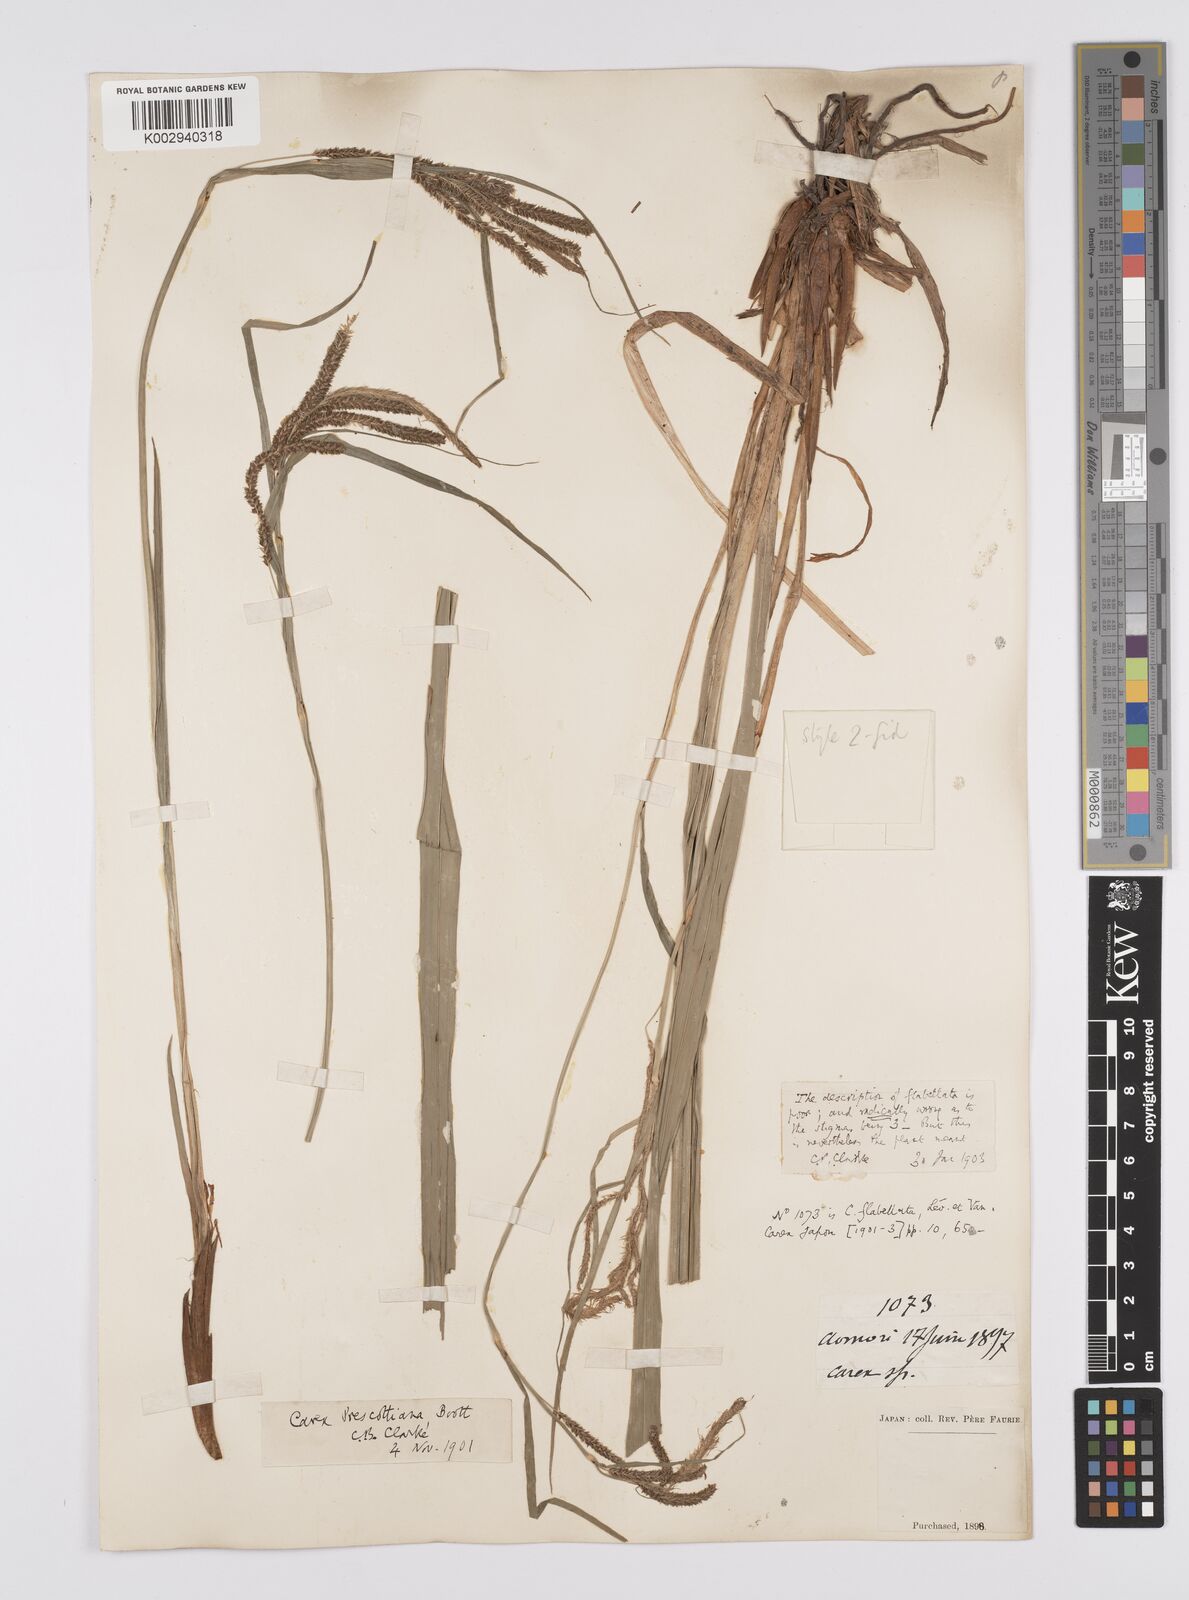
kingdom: Plantae
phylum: Tracheophyta
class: Liliopsida
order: Poales
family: Cyperaceae
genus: Carex
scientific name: Carex prescottiana
